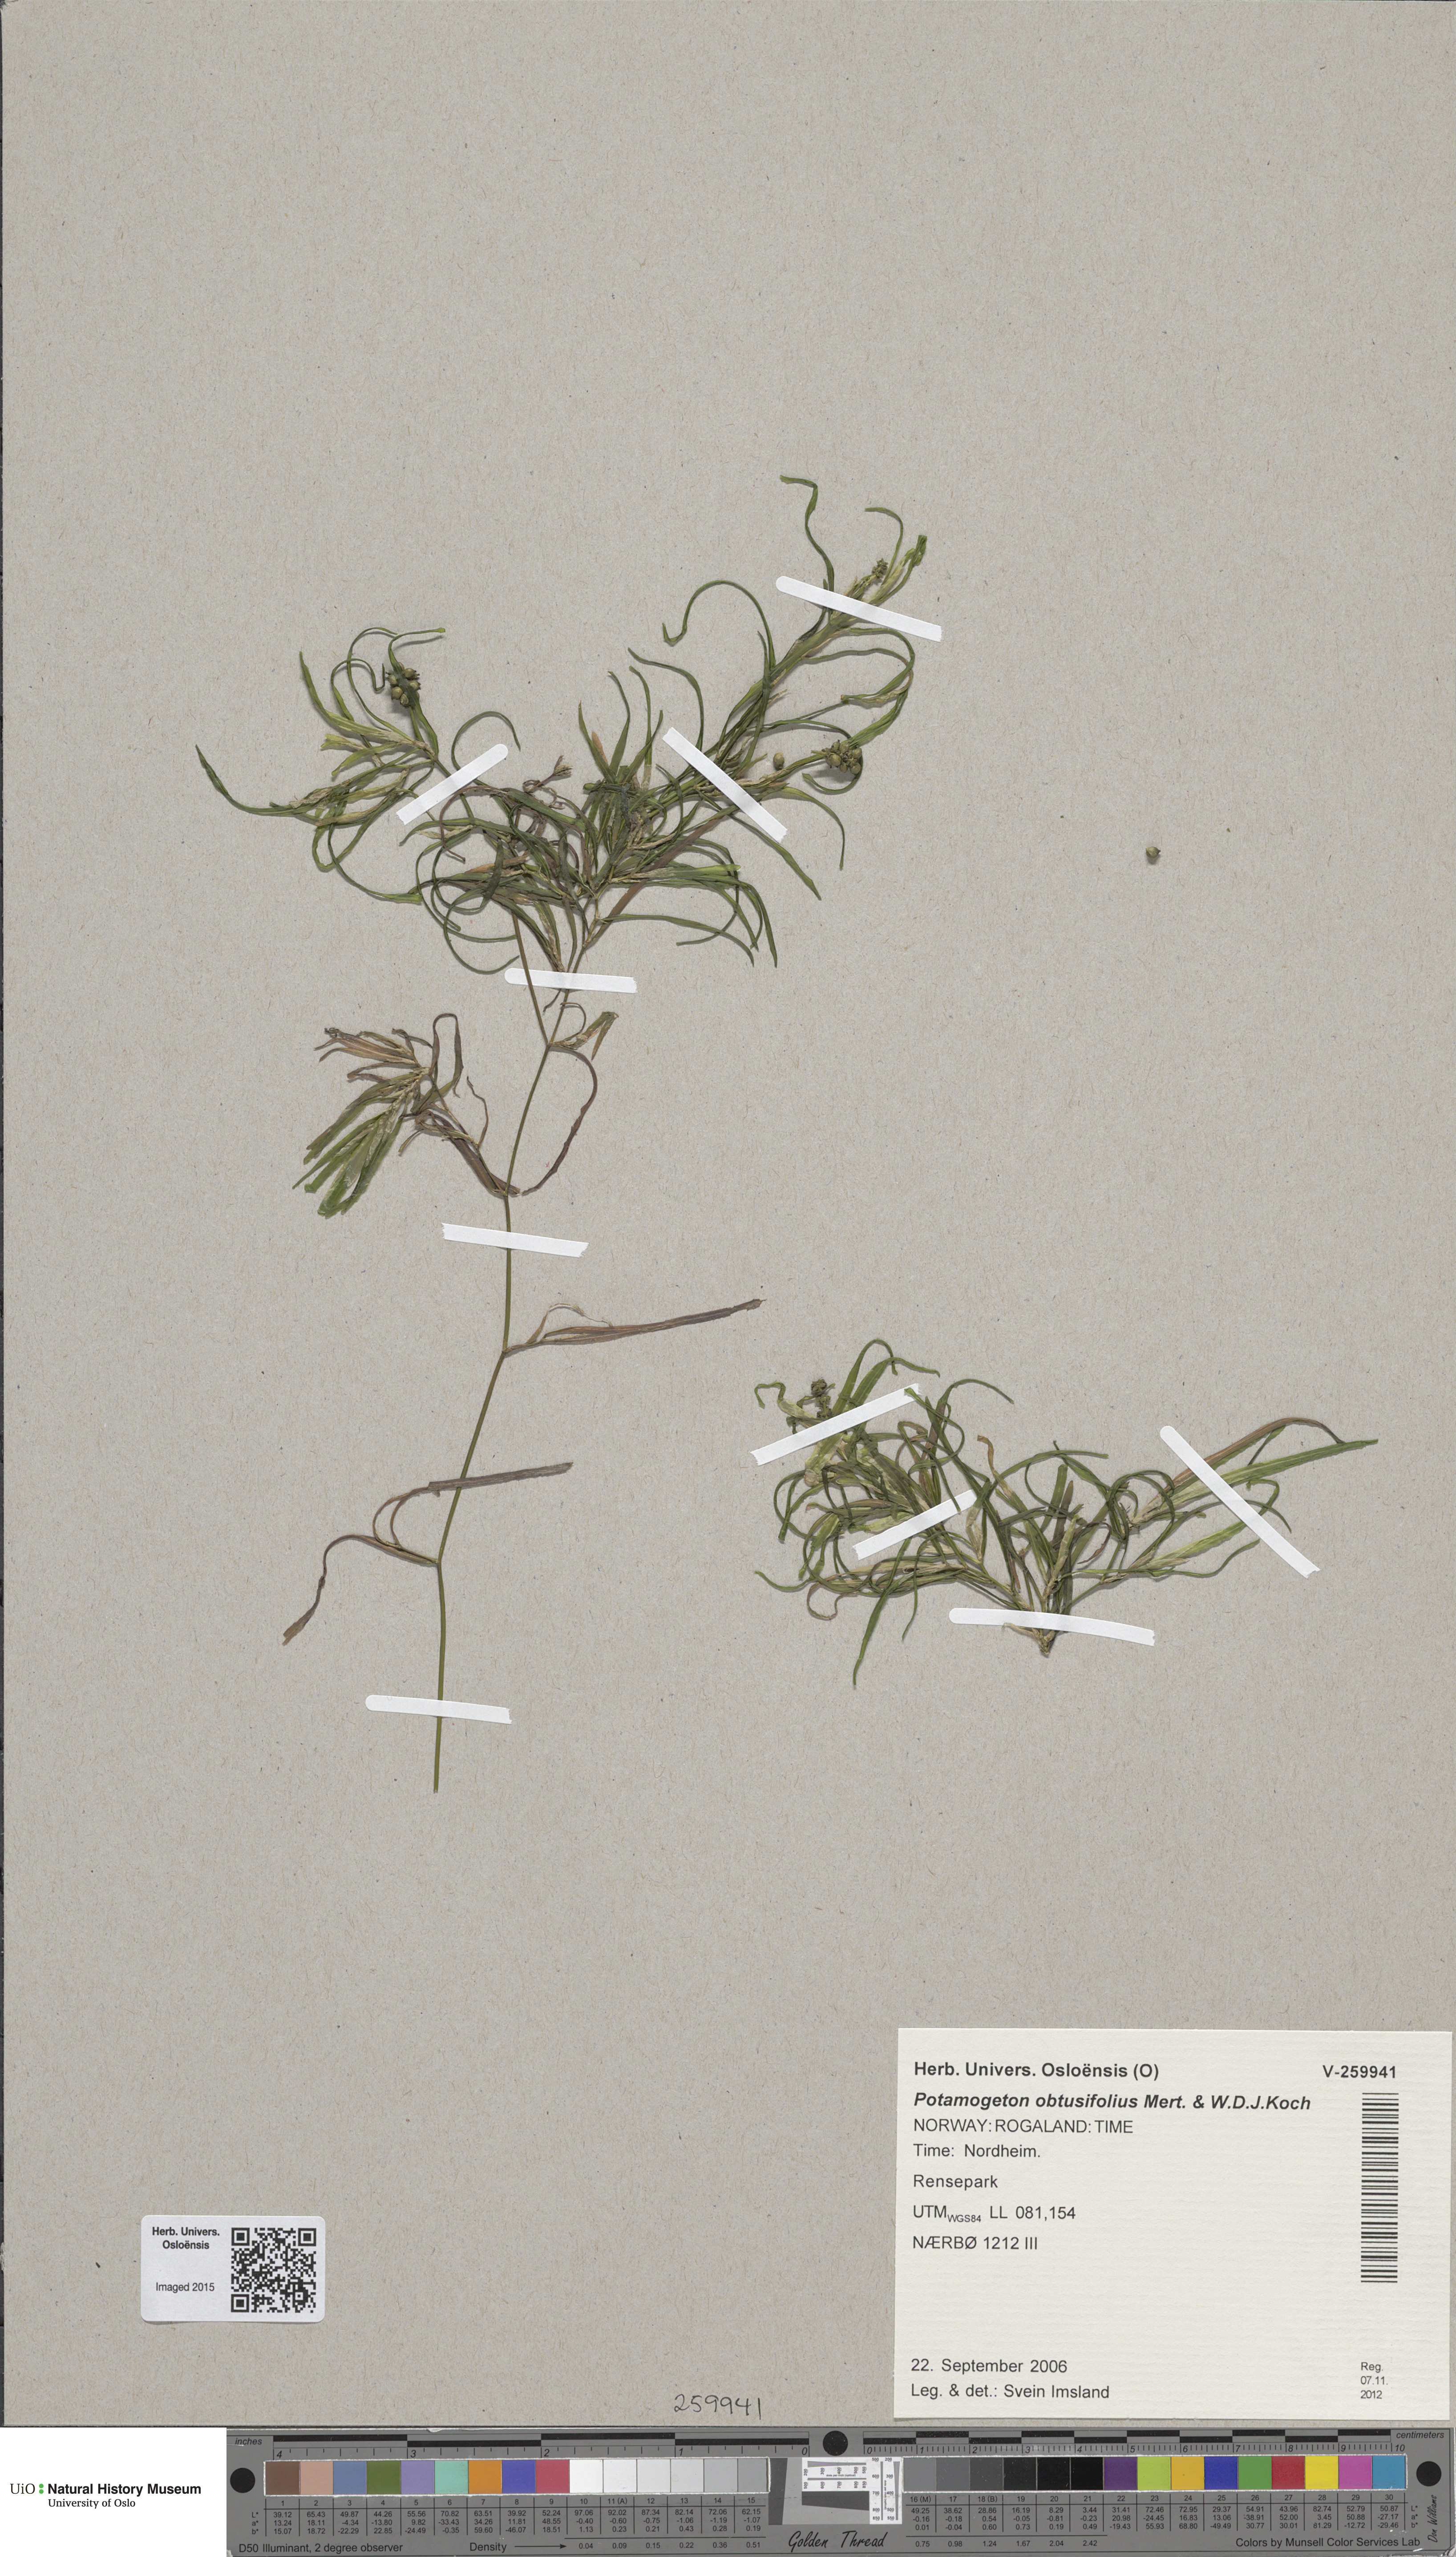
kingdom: Plantae
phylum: Tracheophyta
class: Liliopsida
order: Alismatales
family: Potamogetonaceae
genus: Potamogeton
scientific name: Potamogeton obtusifolius
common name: Blunt-leaved pondweed
